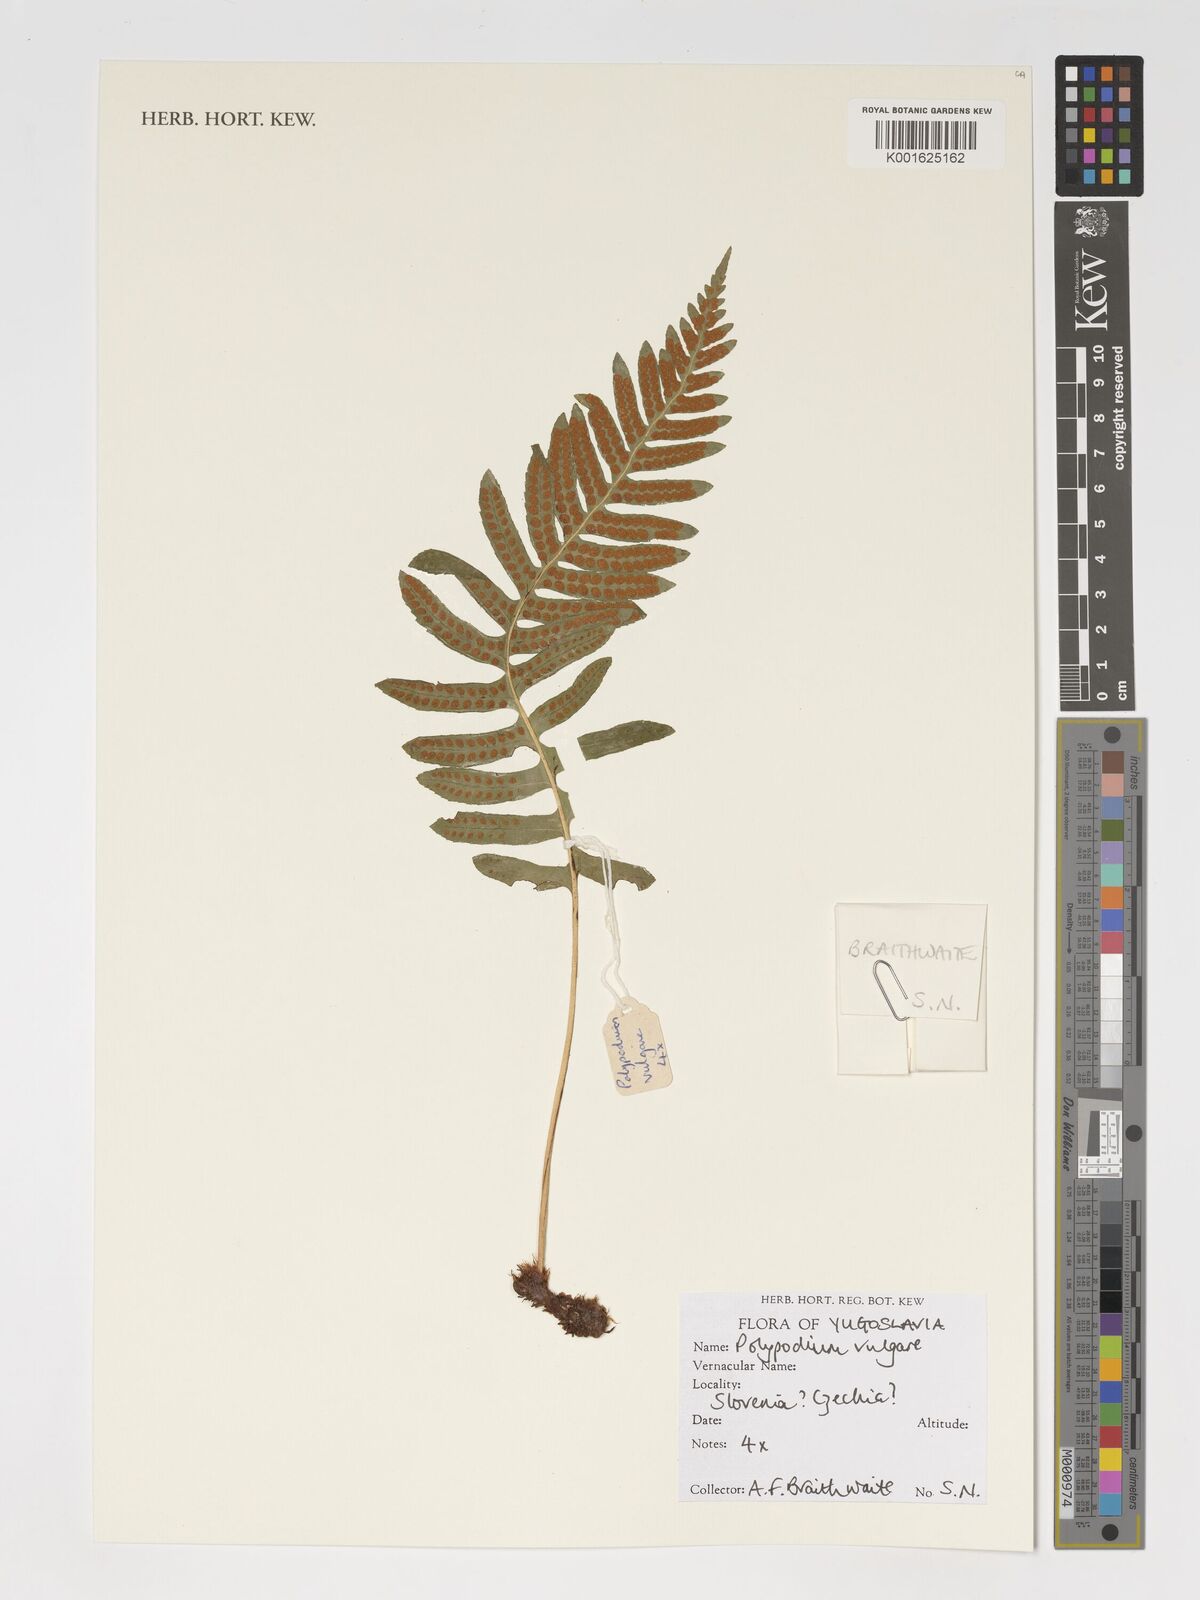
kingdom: Plantae
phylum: Tracheophyta
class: Polypodiopsida
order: Polypodiales
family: Polypodiaceae
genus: Polypodium
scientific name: Polypodium vulgare
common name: Common polypody
